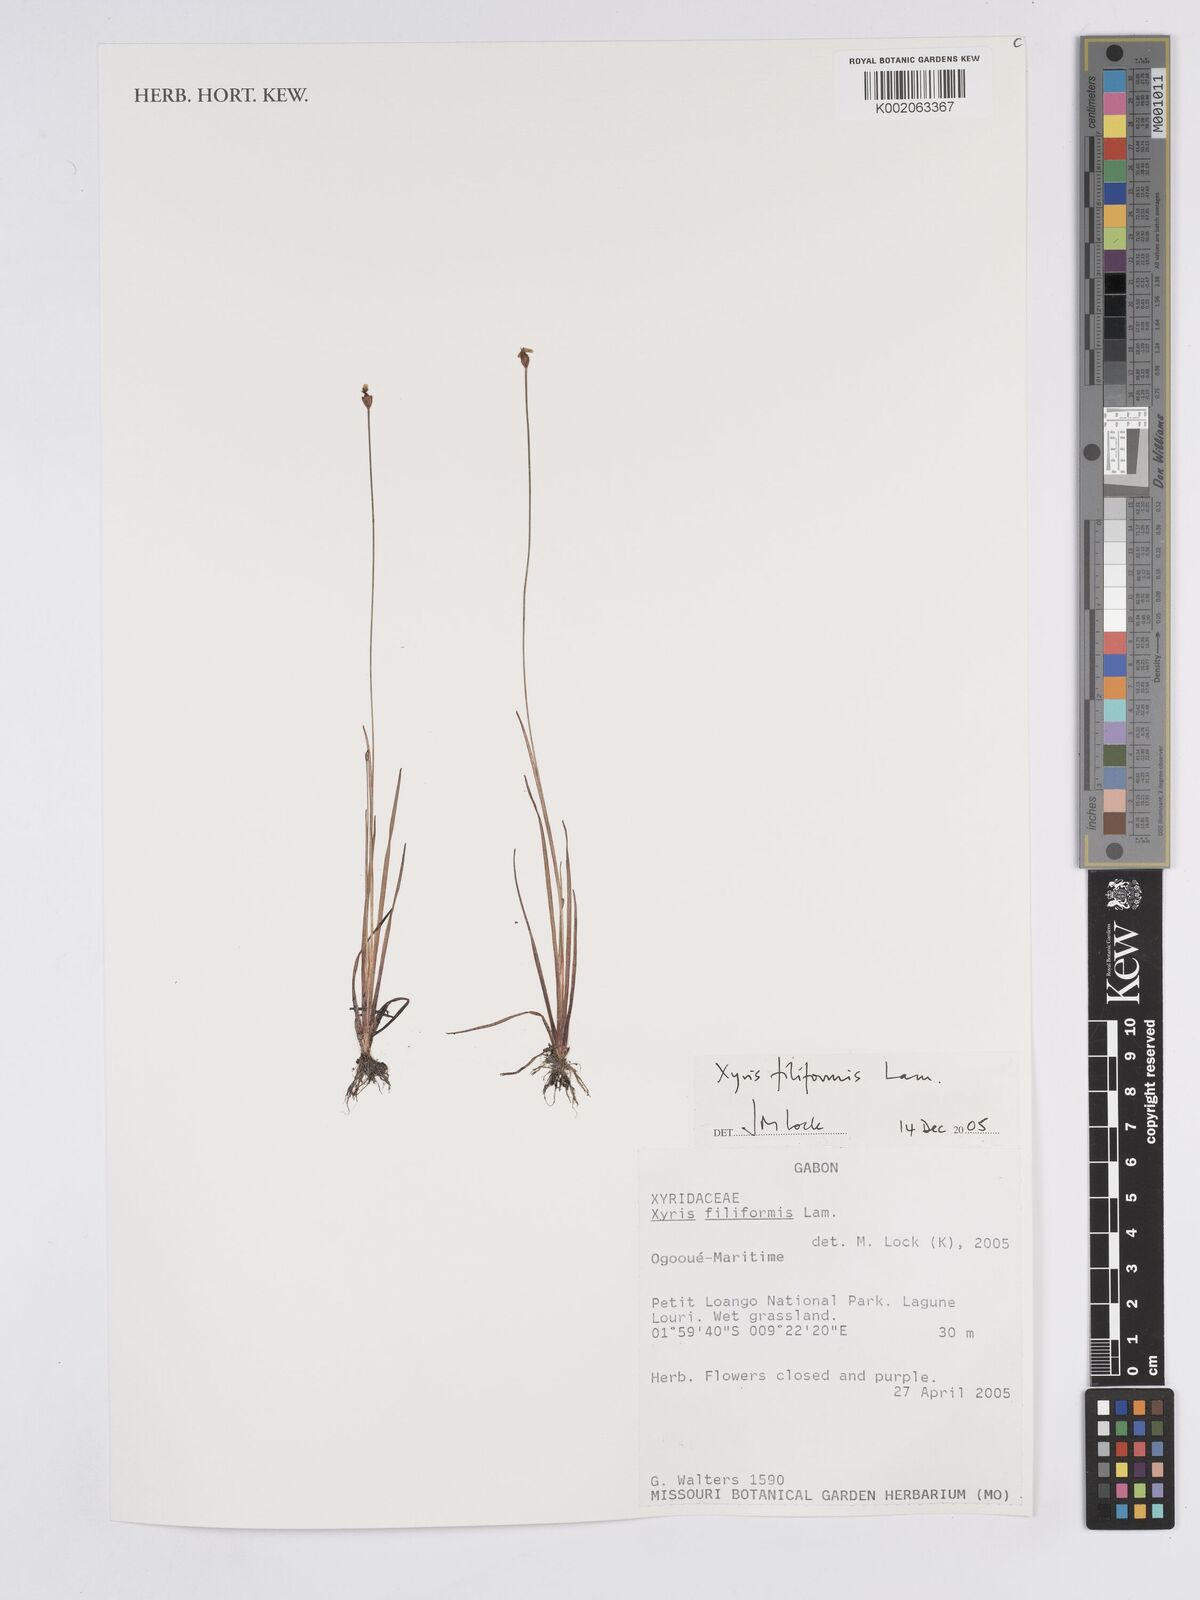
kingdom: Plantae
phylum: Tracheophyta
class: Liliopsida
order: Poales
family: Xyridaceae
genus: Xyris
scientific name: Xyris filiformis
